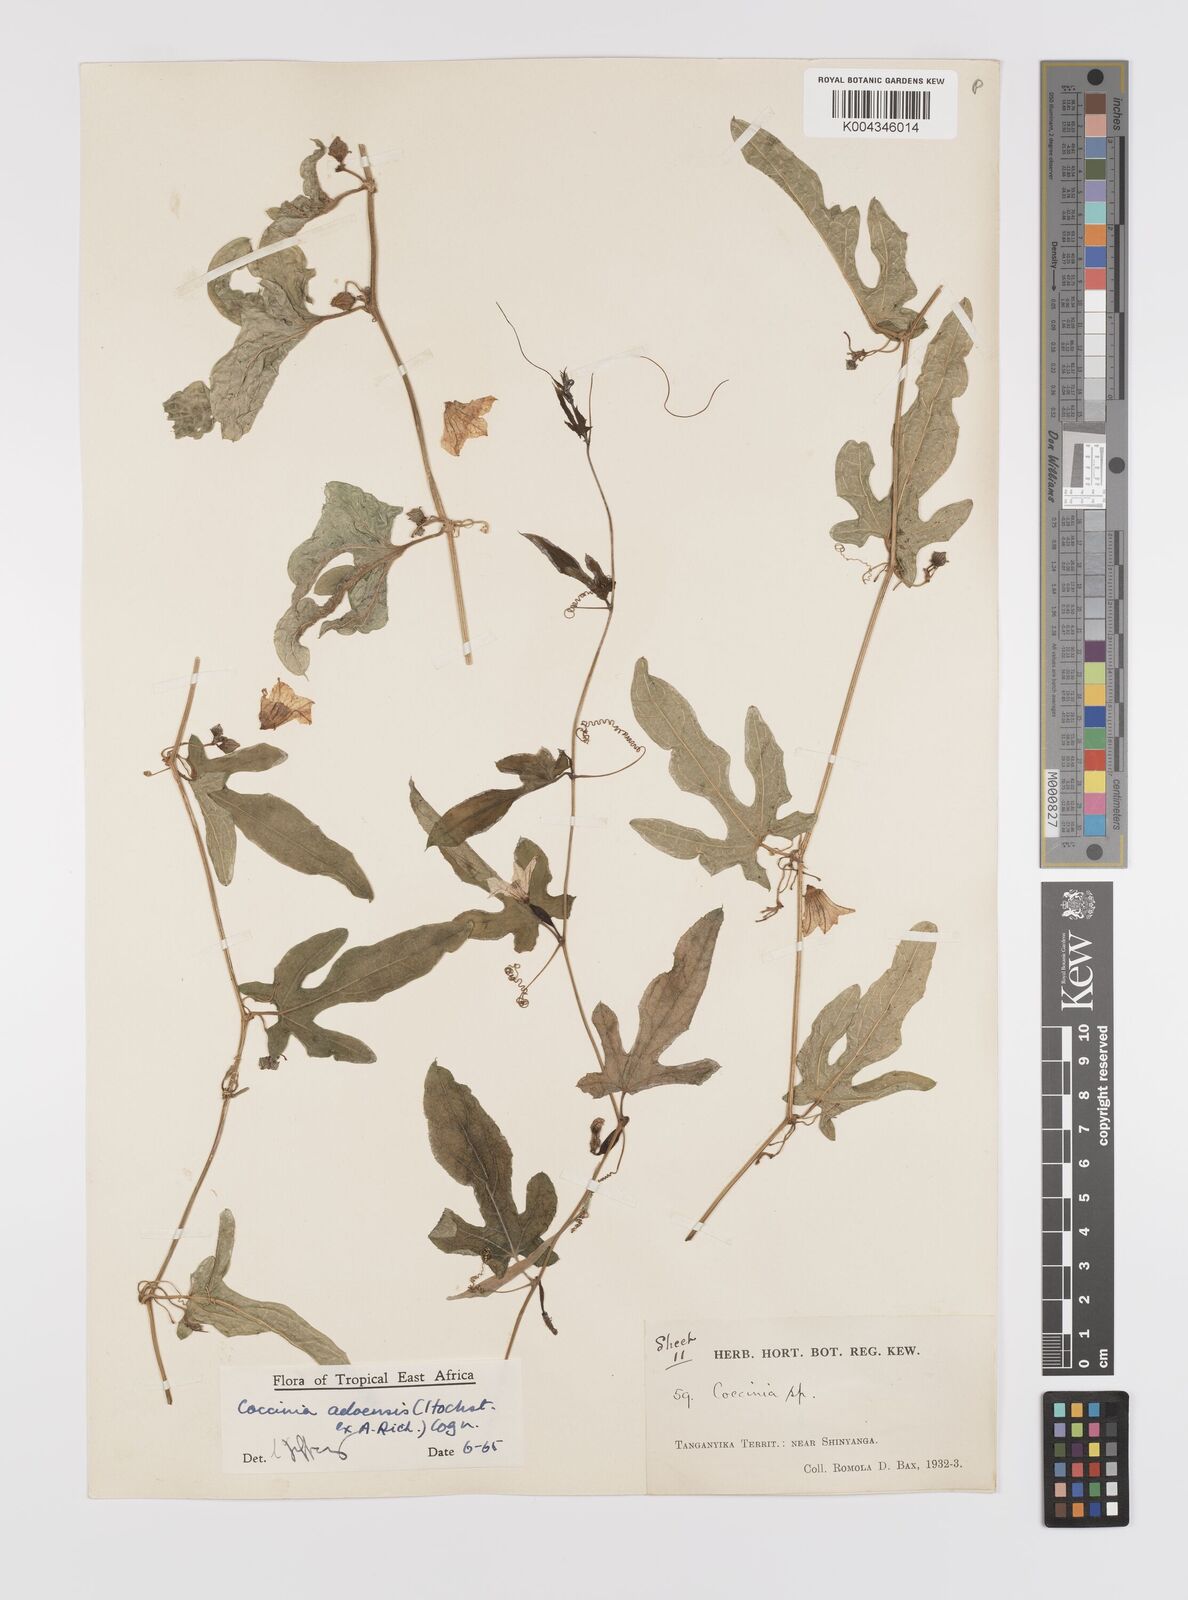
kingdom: Plantae
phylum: Tracheophyta
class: Magnoliopsida
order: Cucurbitales
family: Cucurbitaceae
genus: Coccinia
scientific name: Coccinia adoensis
